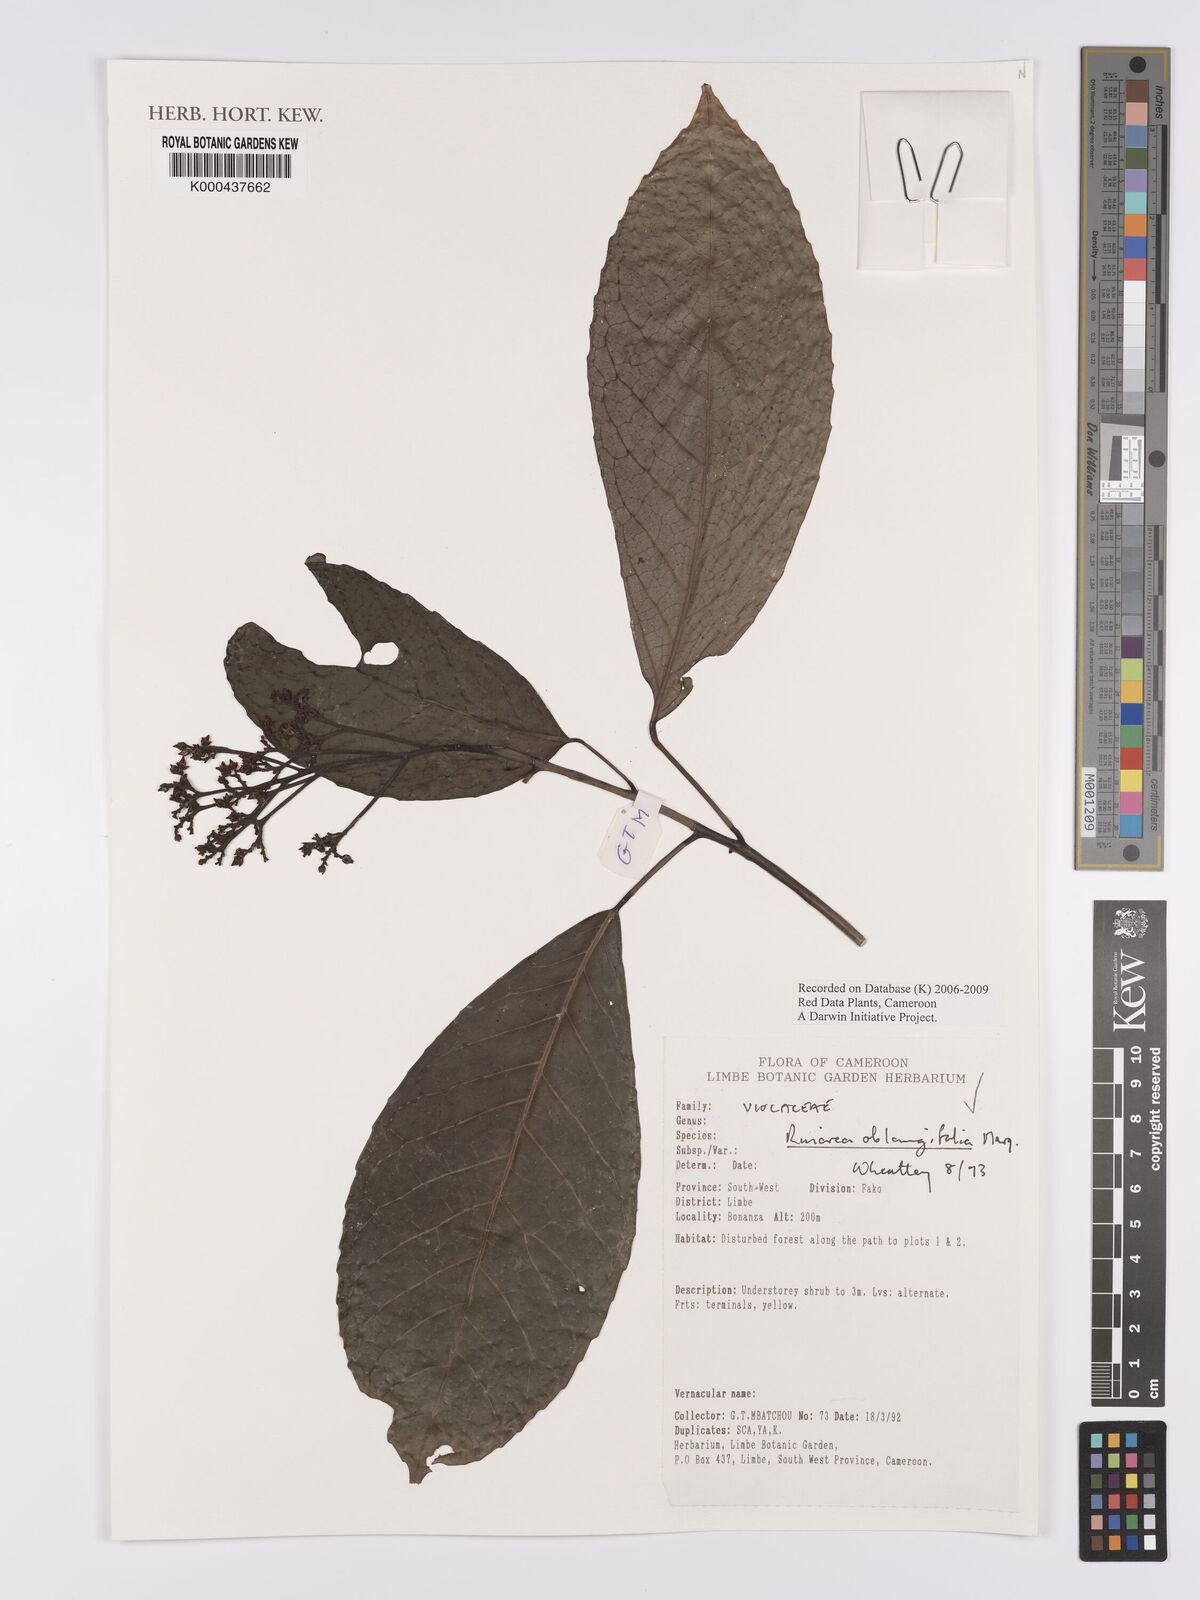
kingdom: Plantae
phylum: Tracheophyta
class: Magnoliopsida
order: Apiales
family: Pittosporaceae
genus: Marianthus
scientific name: Marianthus coeruleopunctatus
